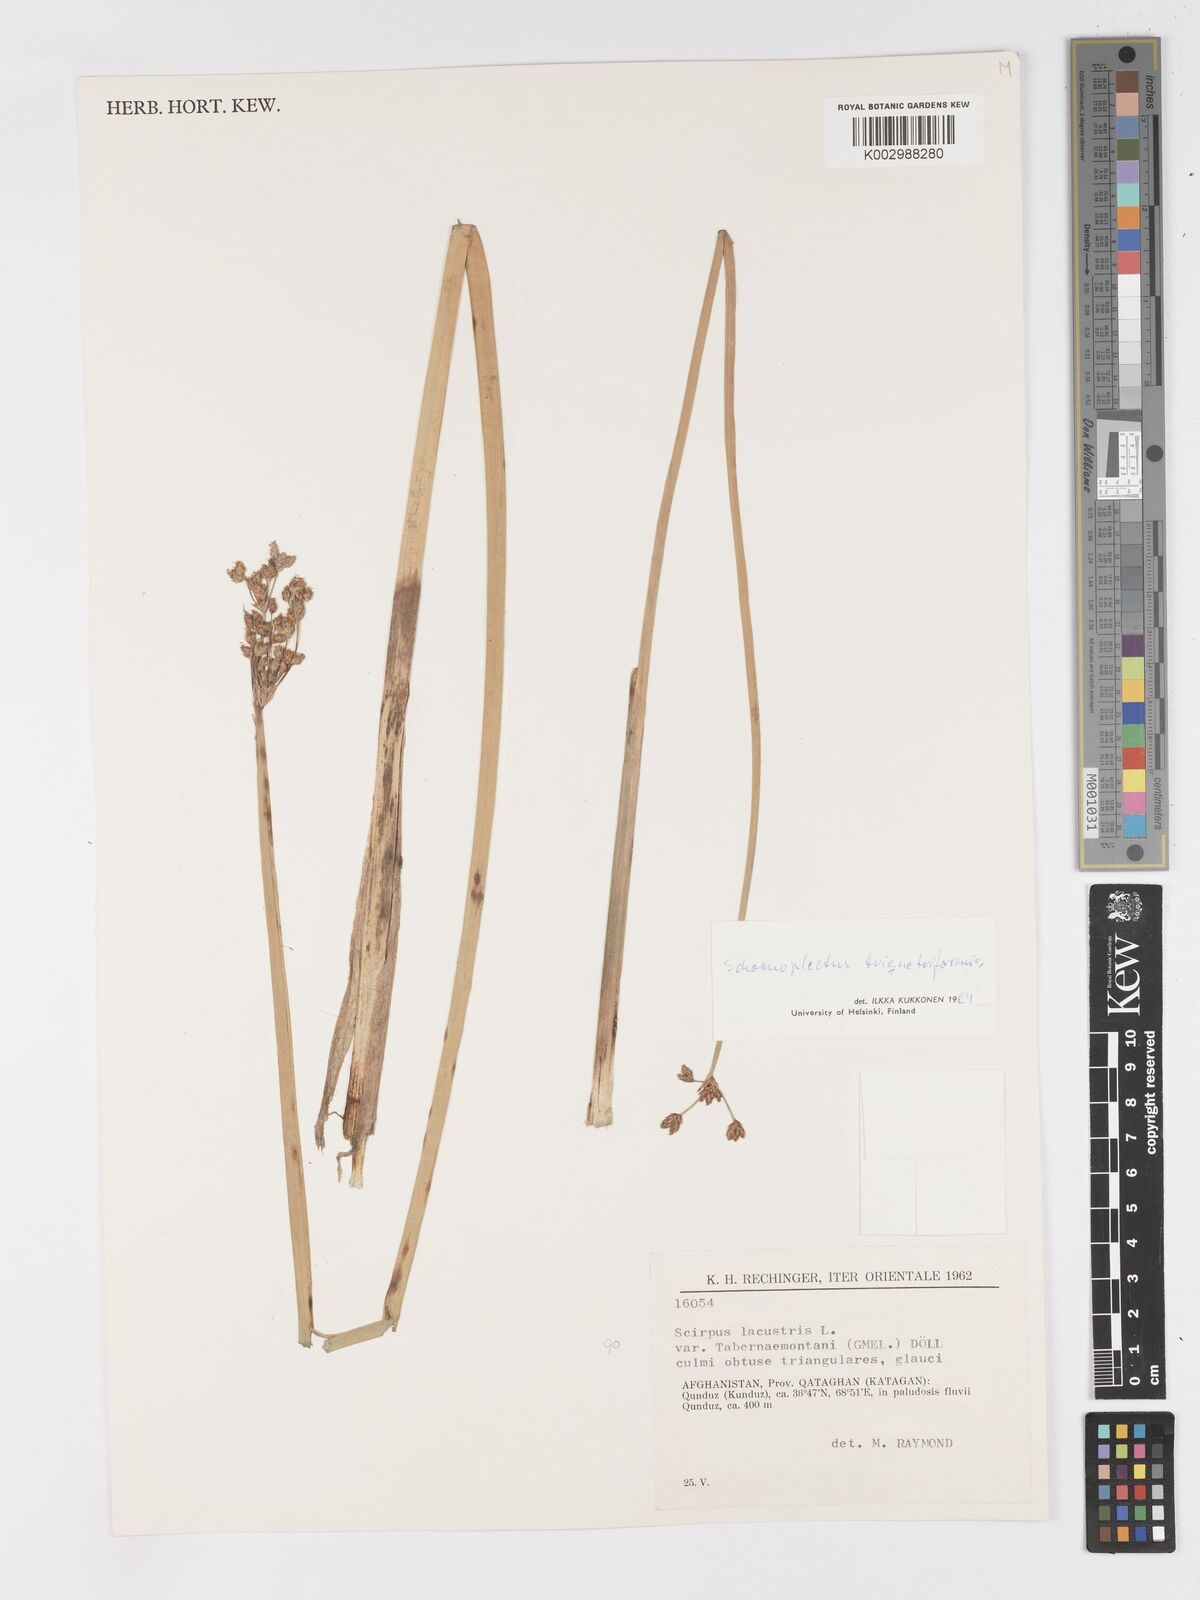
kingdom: Plantae
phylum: Tracheophyta
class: Liliopsida
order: Poales
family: Cyperaceae
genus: Schoenoplectus
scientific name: Schoenoplectus
